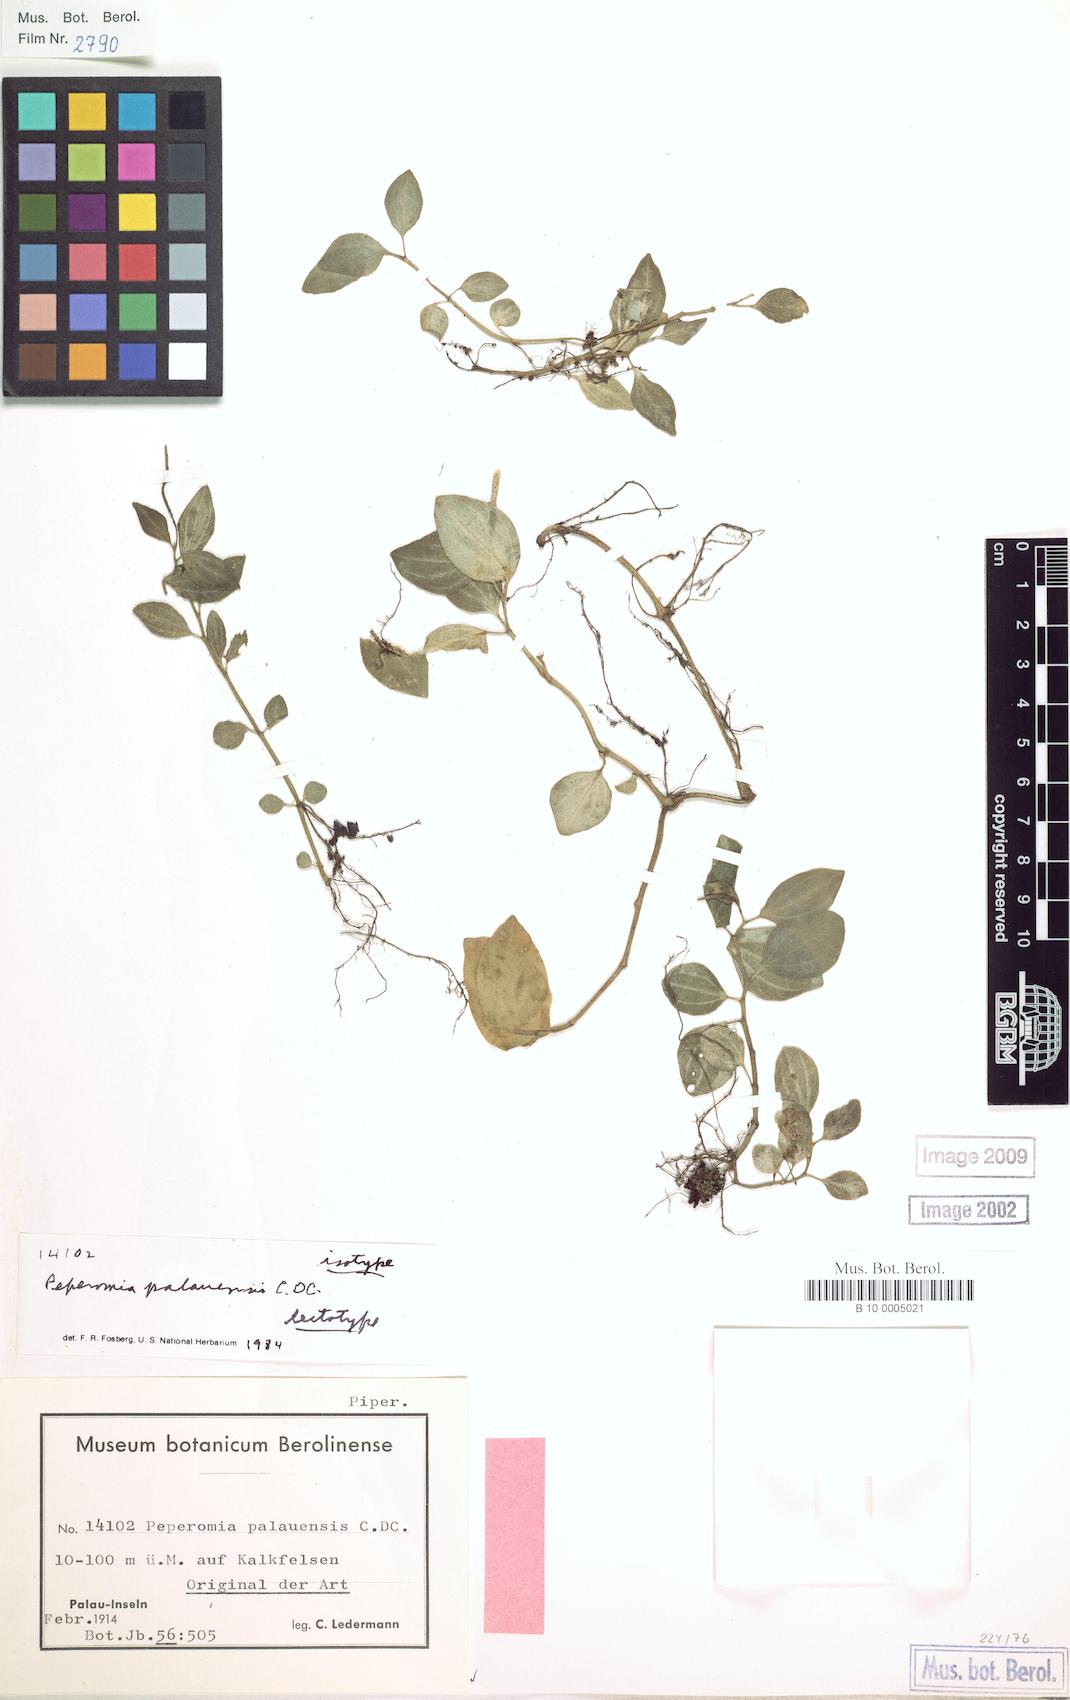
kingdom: Plantae
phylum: Tracheophyta
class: Magnoliopsida
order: Piperales
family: Piperaceae
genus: Peperomia
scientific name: Peperomia argyroneura
